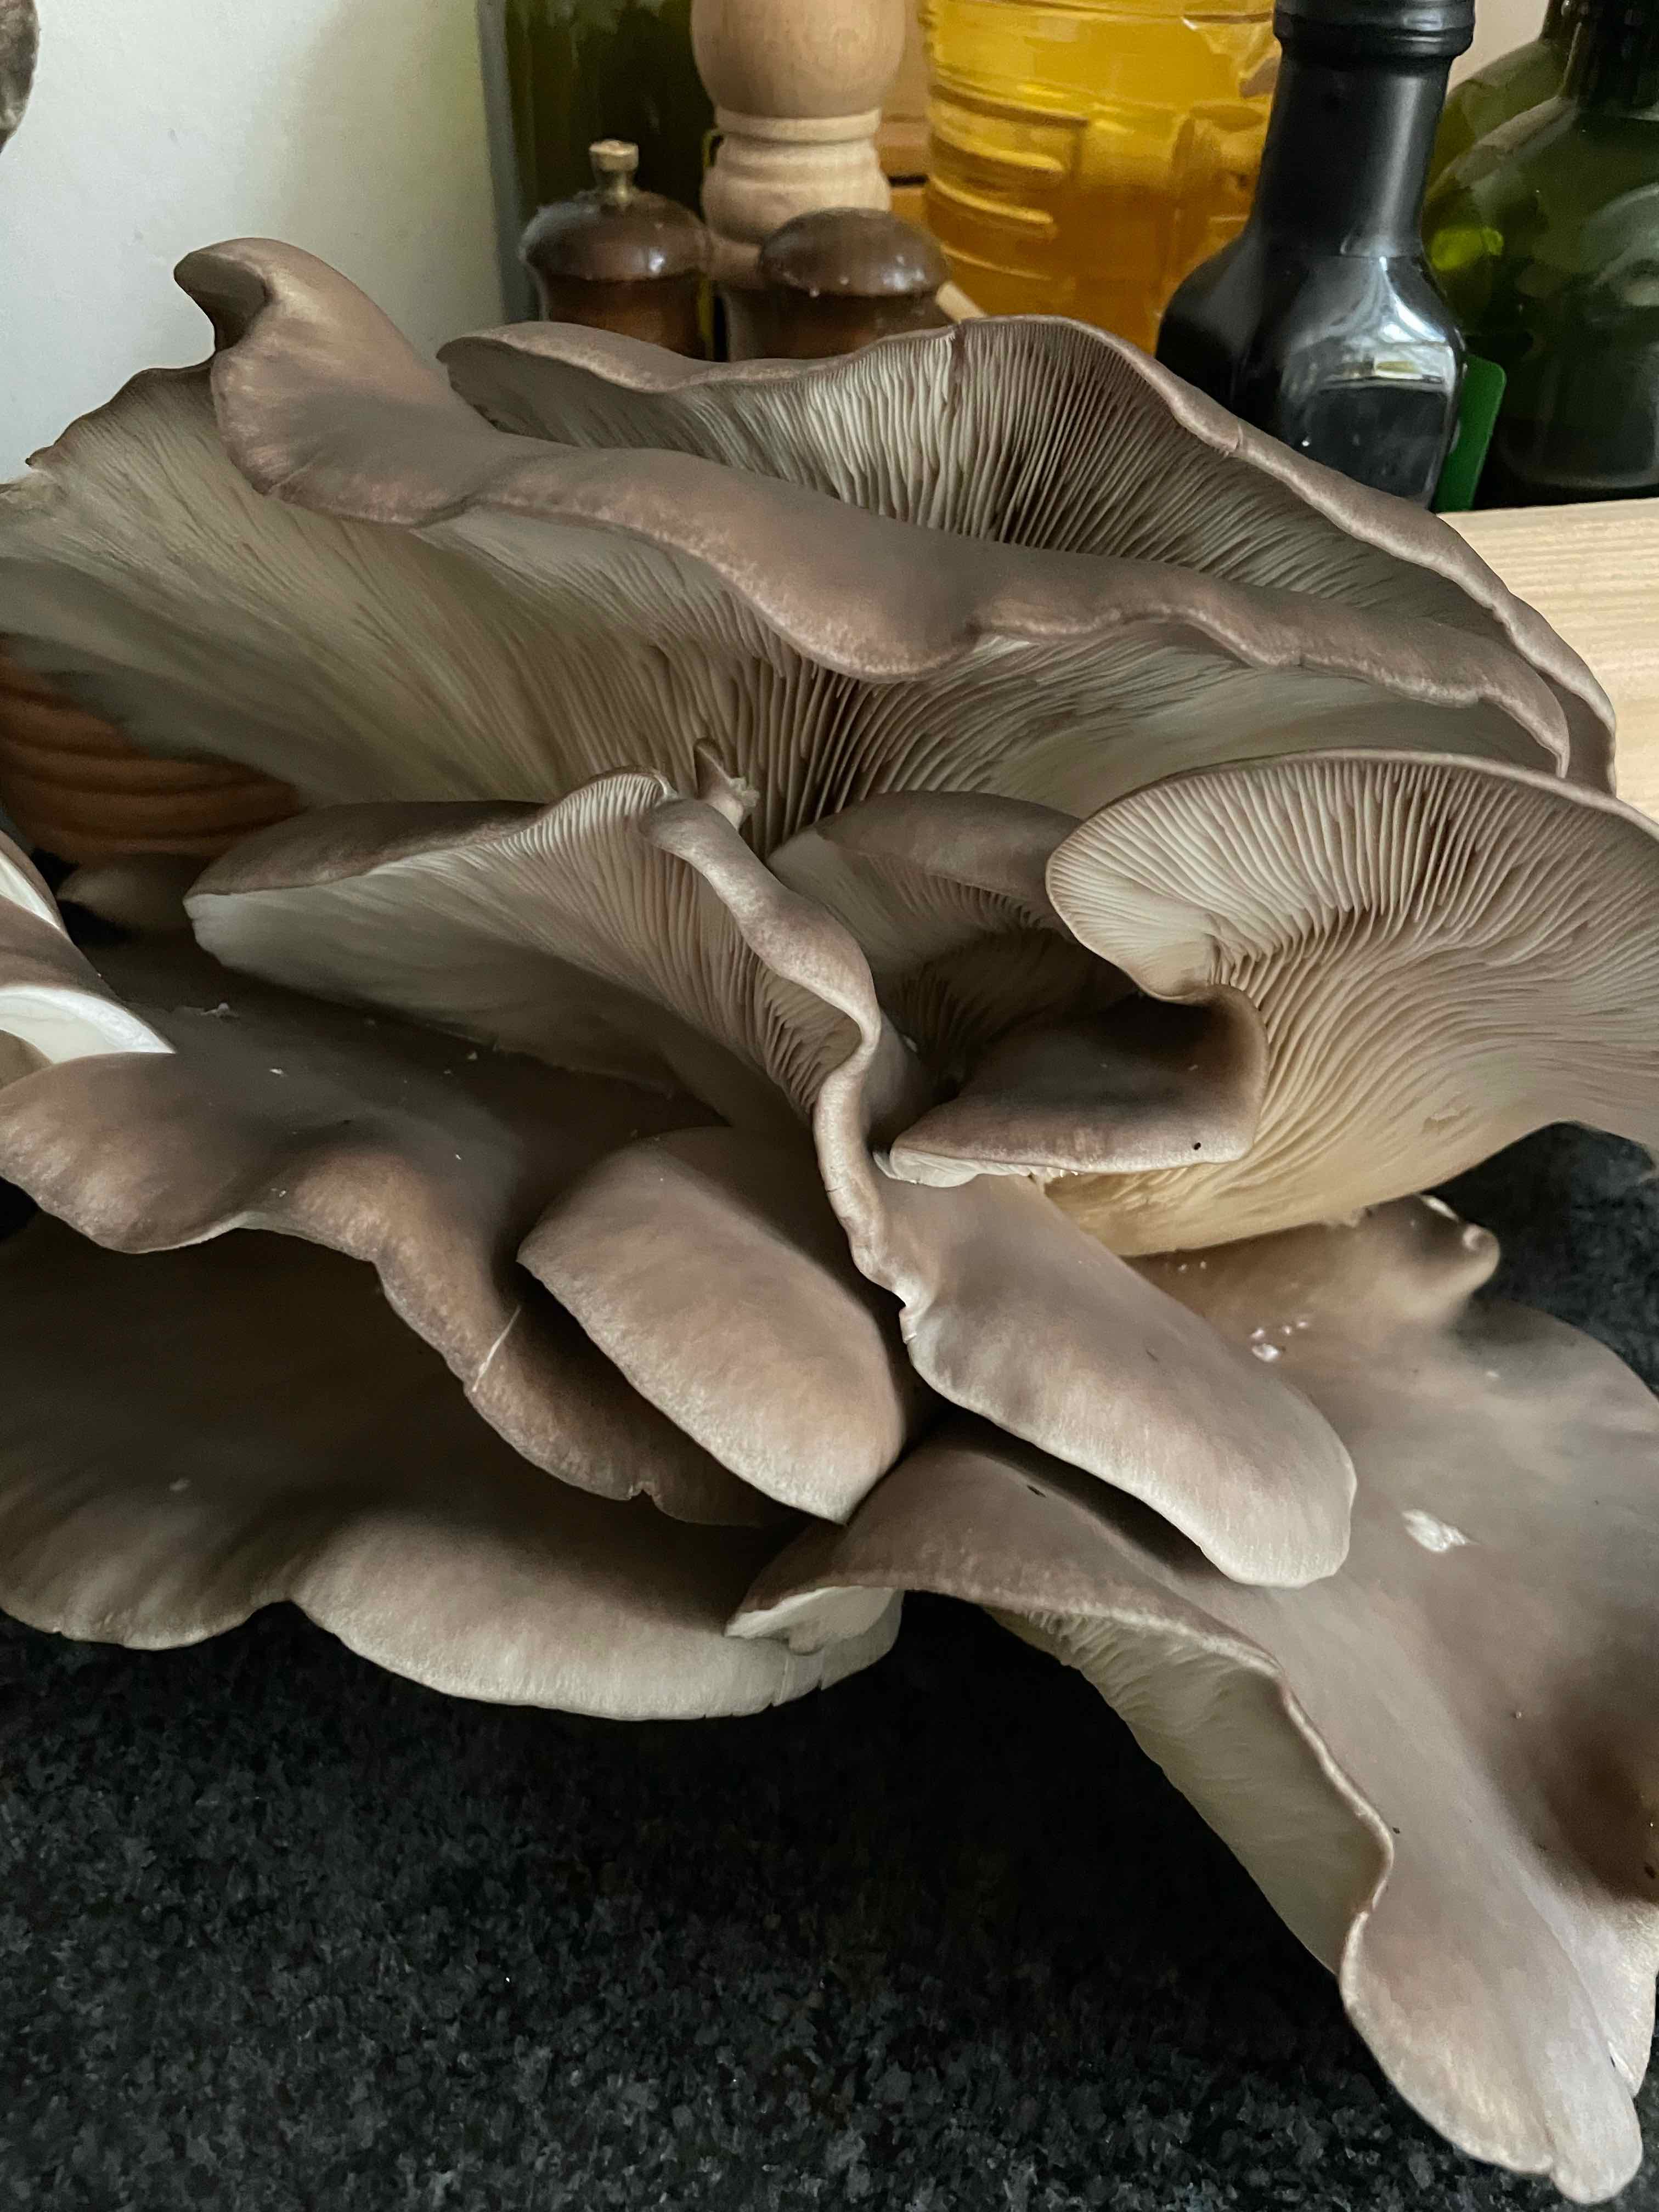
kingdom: Fungi
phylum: Basidiomycota
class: Agaricomycetes
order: Agaricales
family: Pleurotaceae
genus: Pleurotus
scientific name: Pleurotus ostreatus
